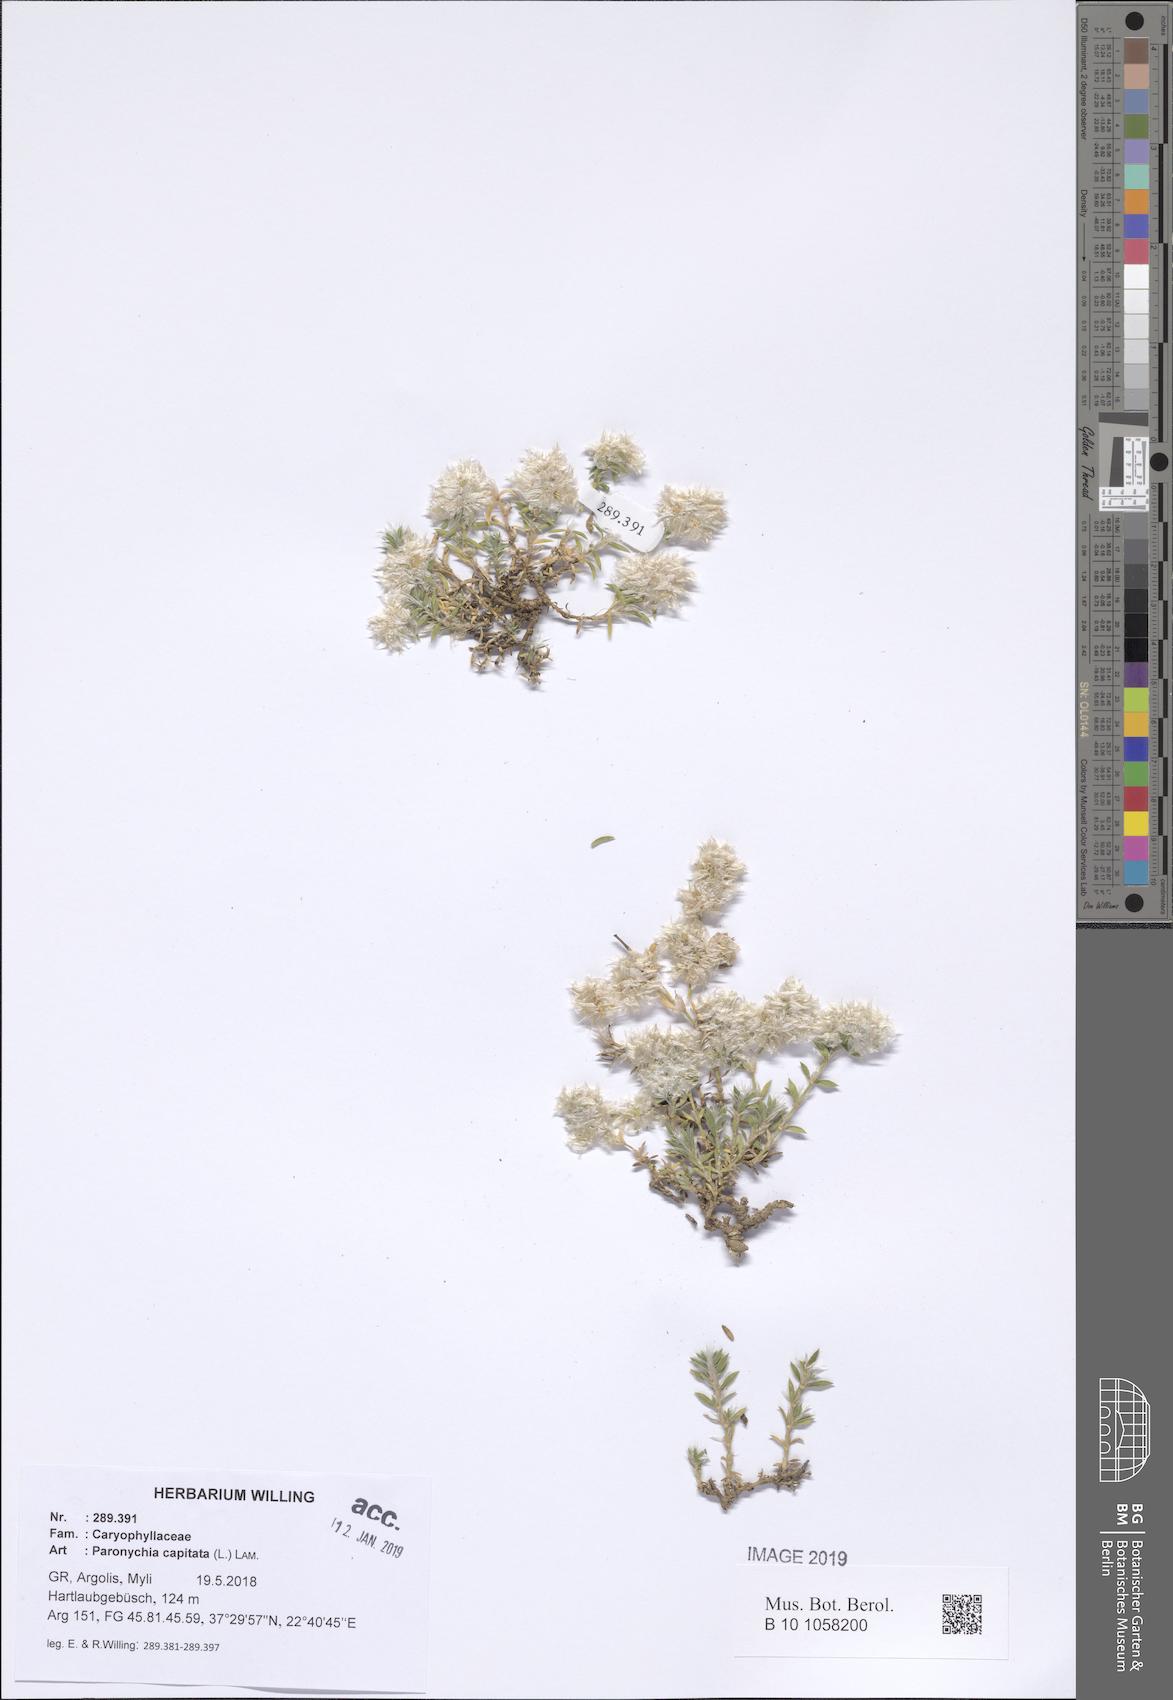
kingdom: Plantae
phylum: Tracheophyta
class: Magnoliopsida
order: Caryophyllales
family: Caryophyllaceae
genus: Paronychia
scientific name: Paronychia capitata
